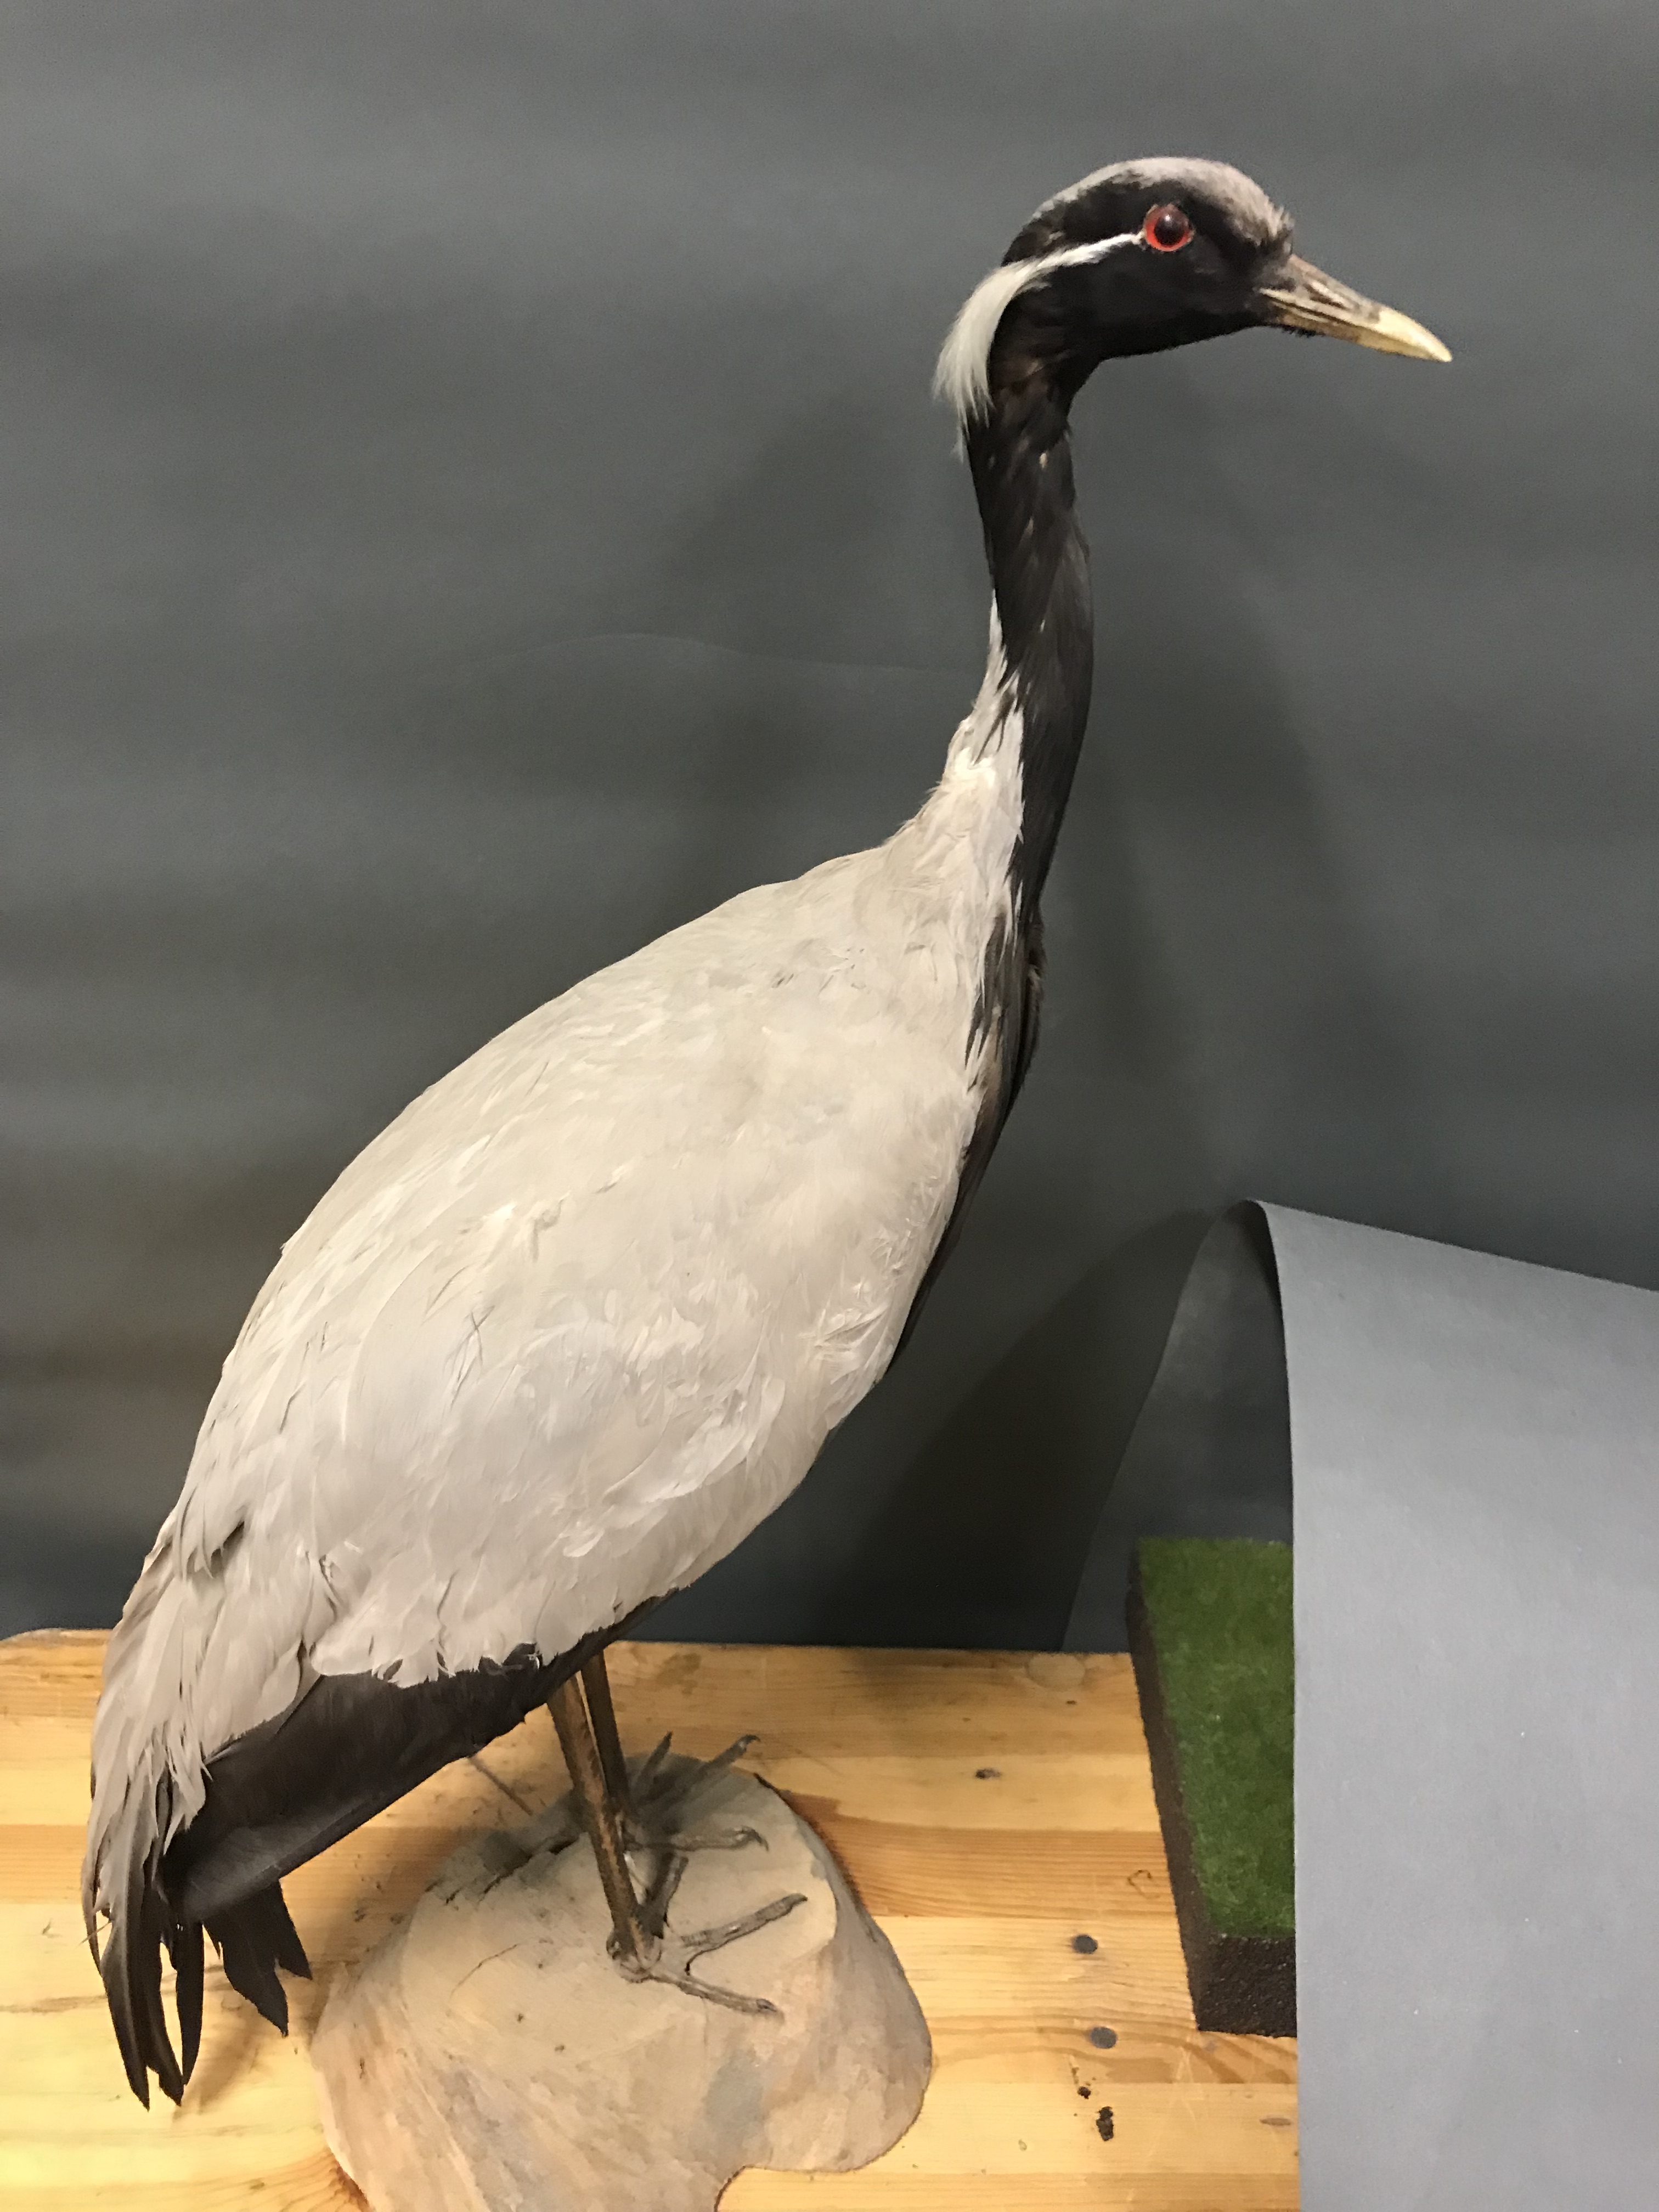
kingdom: Animalia
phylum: Chordata
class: Aves
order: Gruiformes
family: Gruidae
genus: Anthropoides
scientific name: Anthropoides virgo
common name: Demoiselle crane
